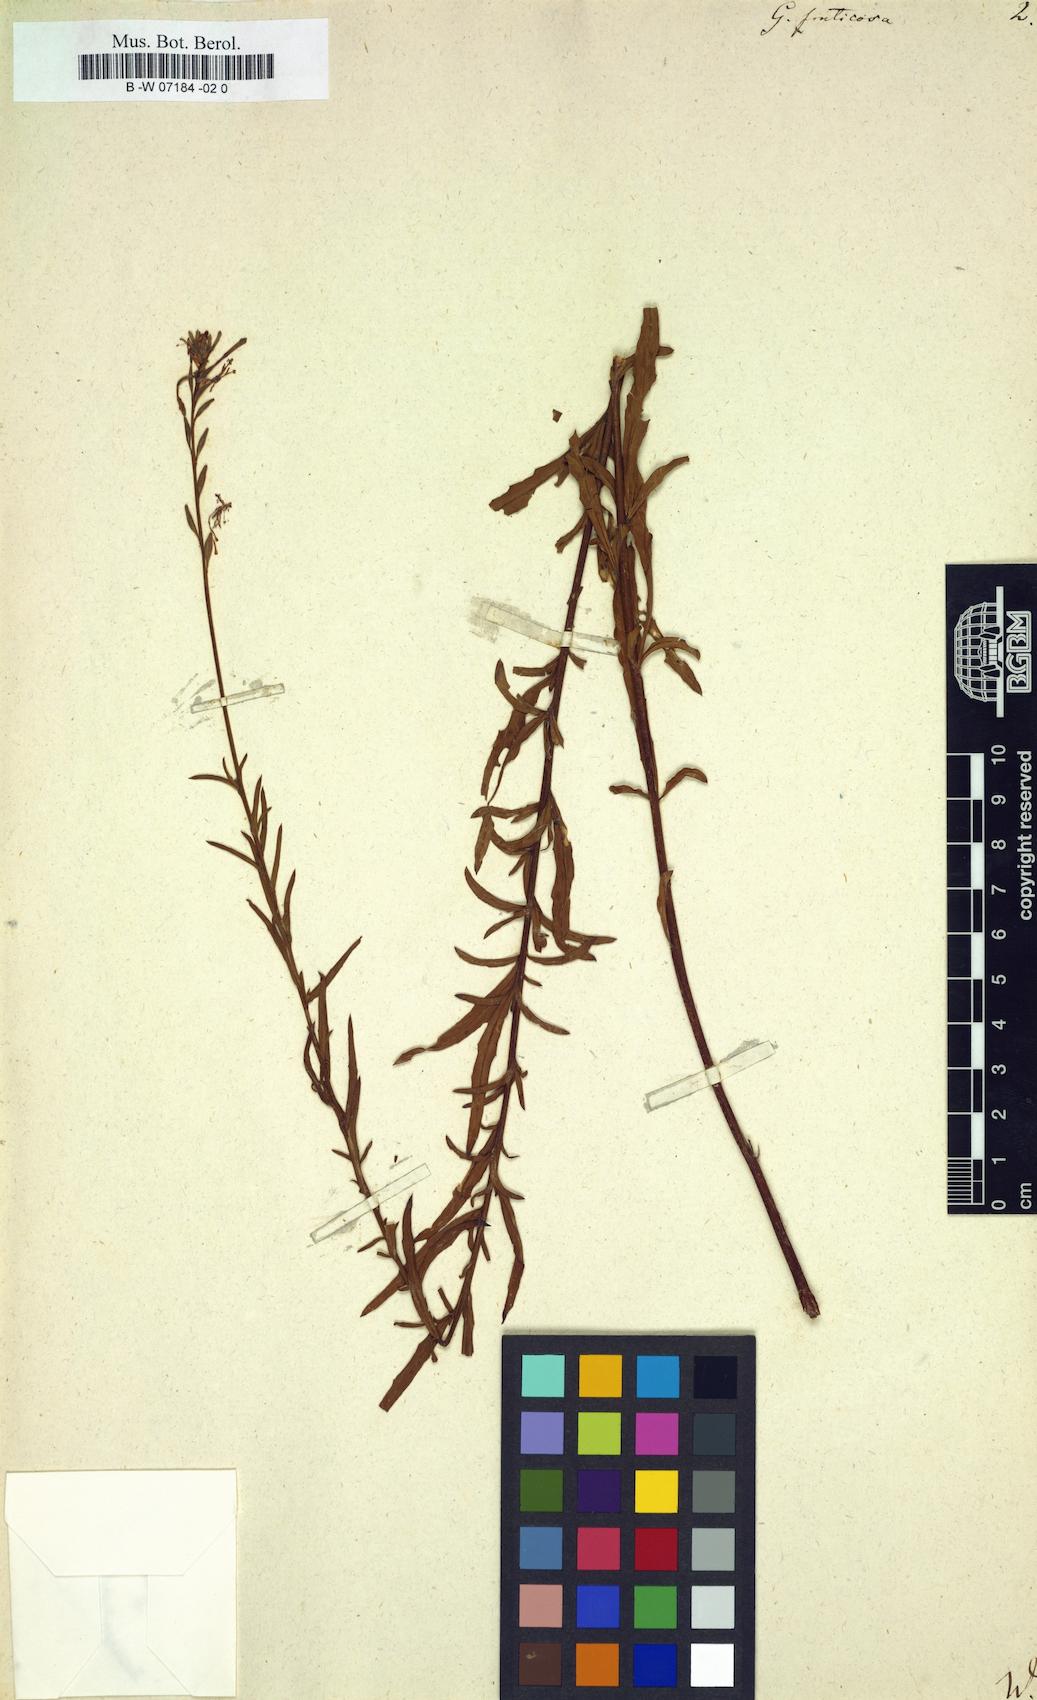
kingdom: Plantae
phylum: Tracheophyta
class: Magnoliopsida
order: Myrtales
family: Onagraceae
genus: Oenothera
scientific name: Oenothera simulans
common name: Southern beeblossom
